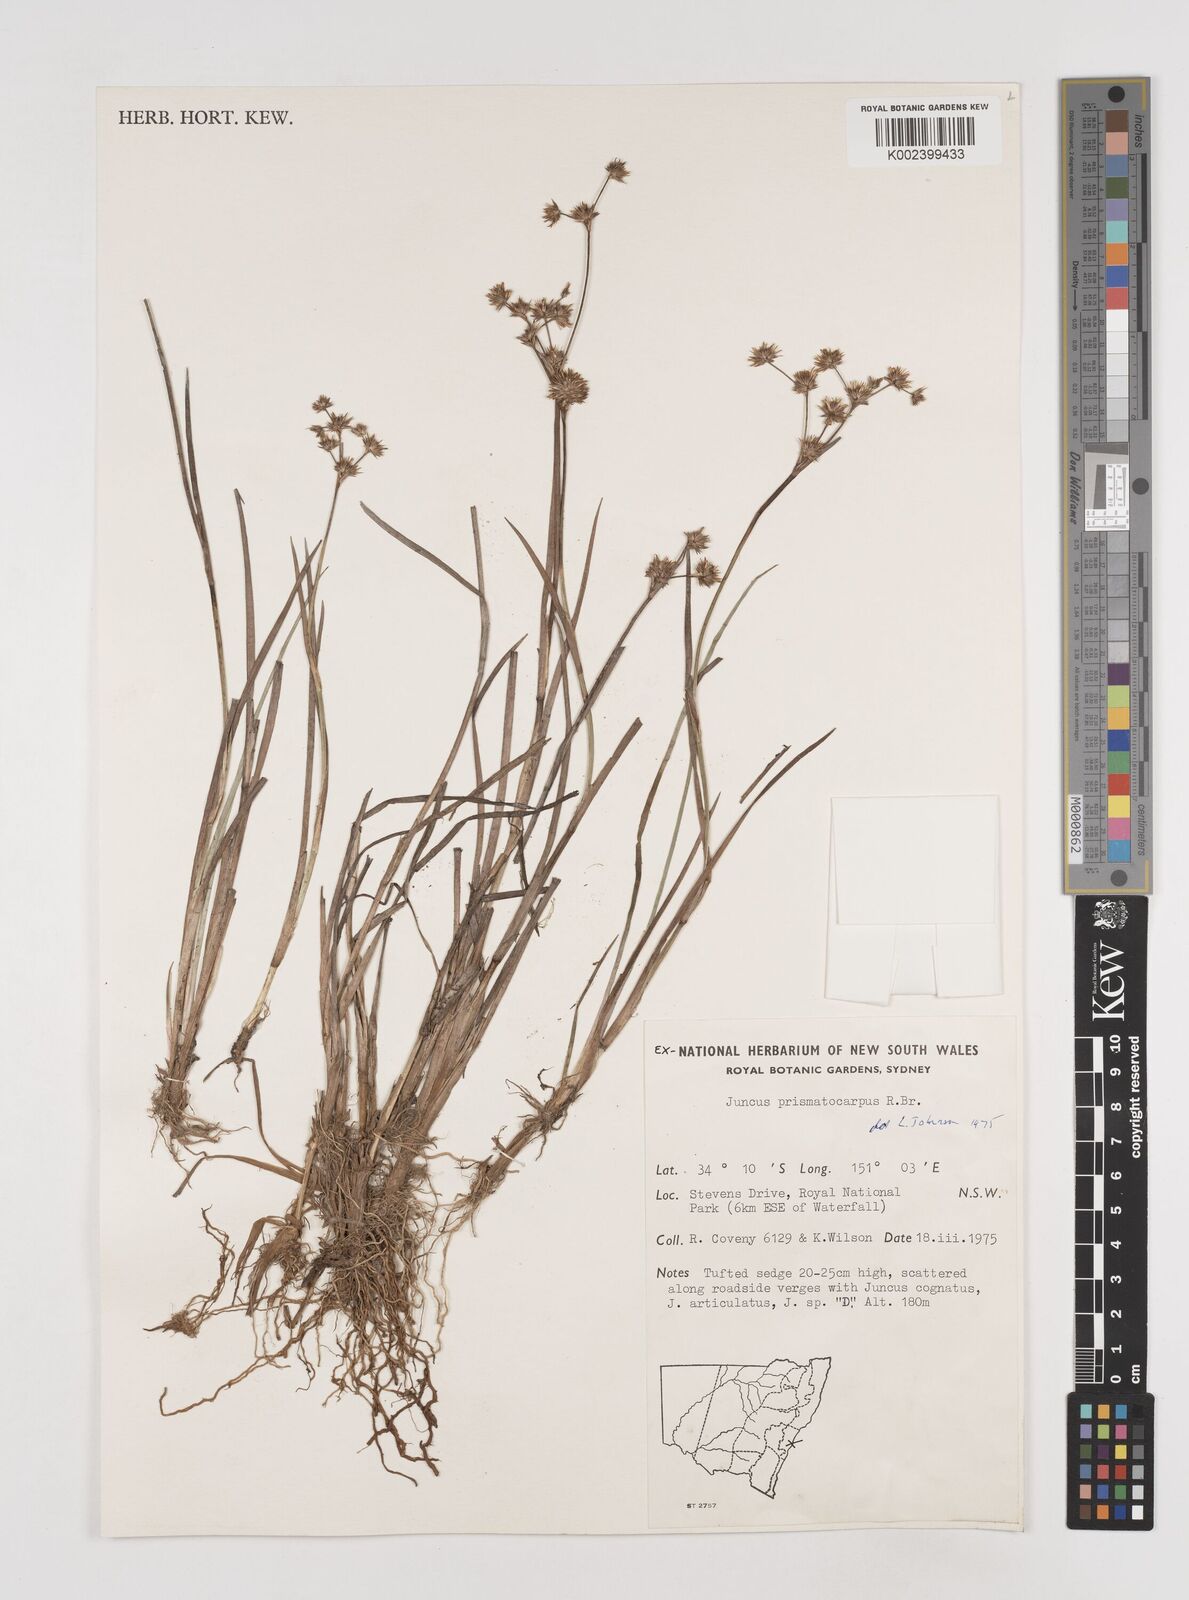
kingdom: Plantae
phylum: Tracheophyta
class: Liliopsida
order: Poales
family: Juncaceae
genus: Juncus
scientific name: Juncus prismatocarpus
